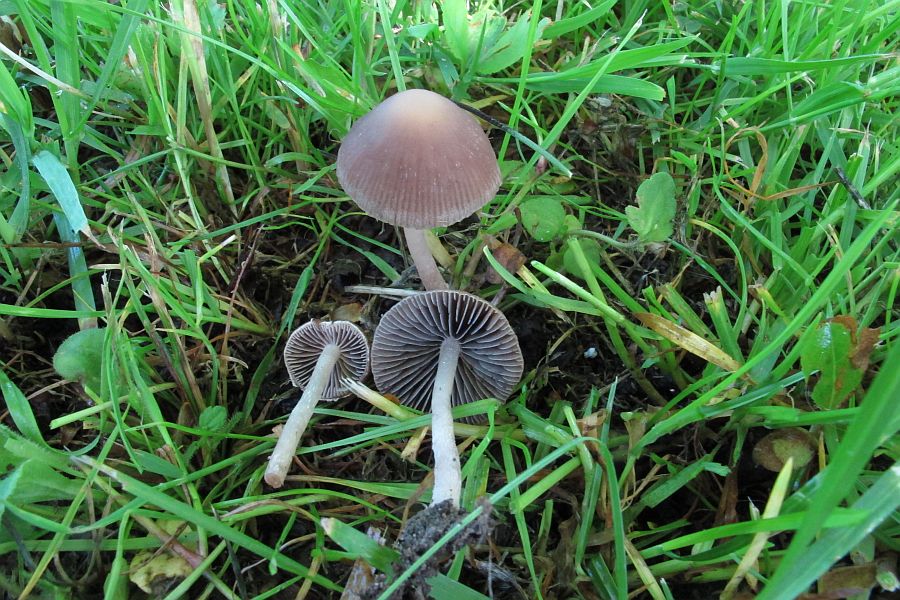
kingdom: Fungi
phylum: Basidiomycota
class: Agaricomycetes
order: Agaricales
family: Psathyrellaceae
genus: Psathyrella
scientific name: Psathyrella bipellis
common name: vinrød mørkhat
